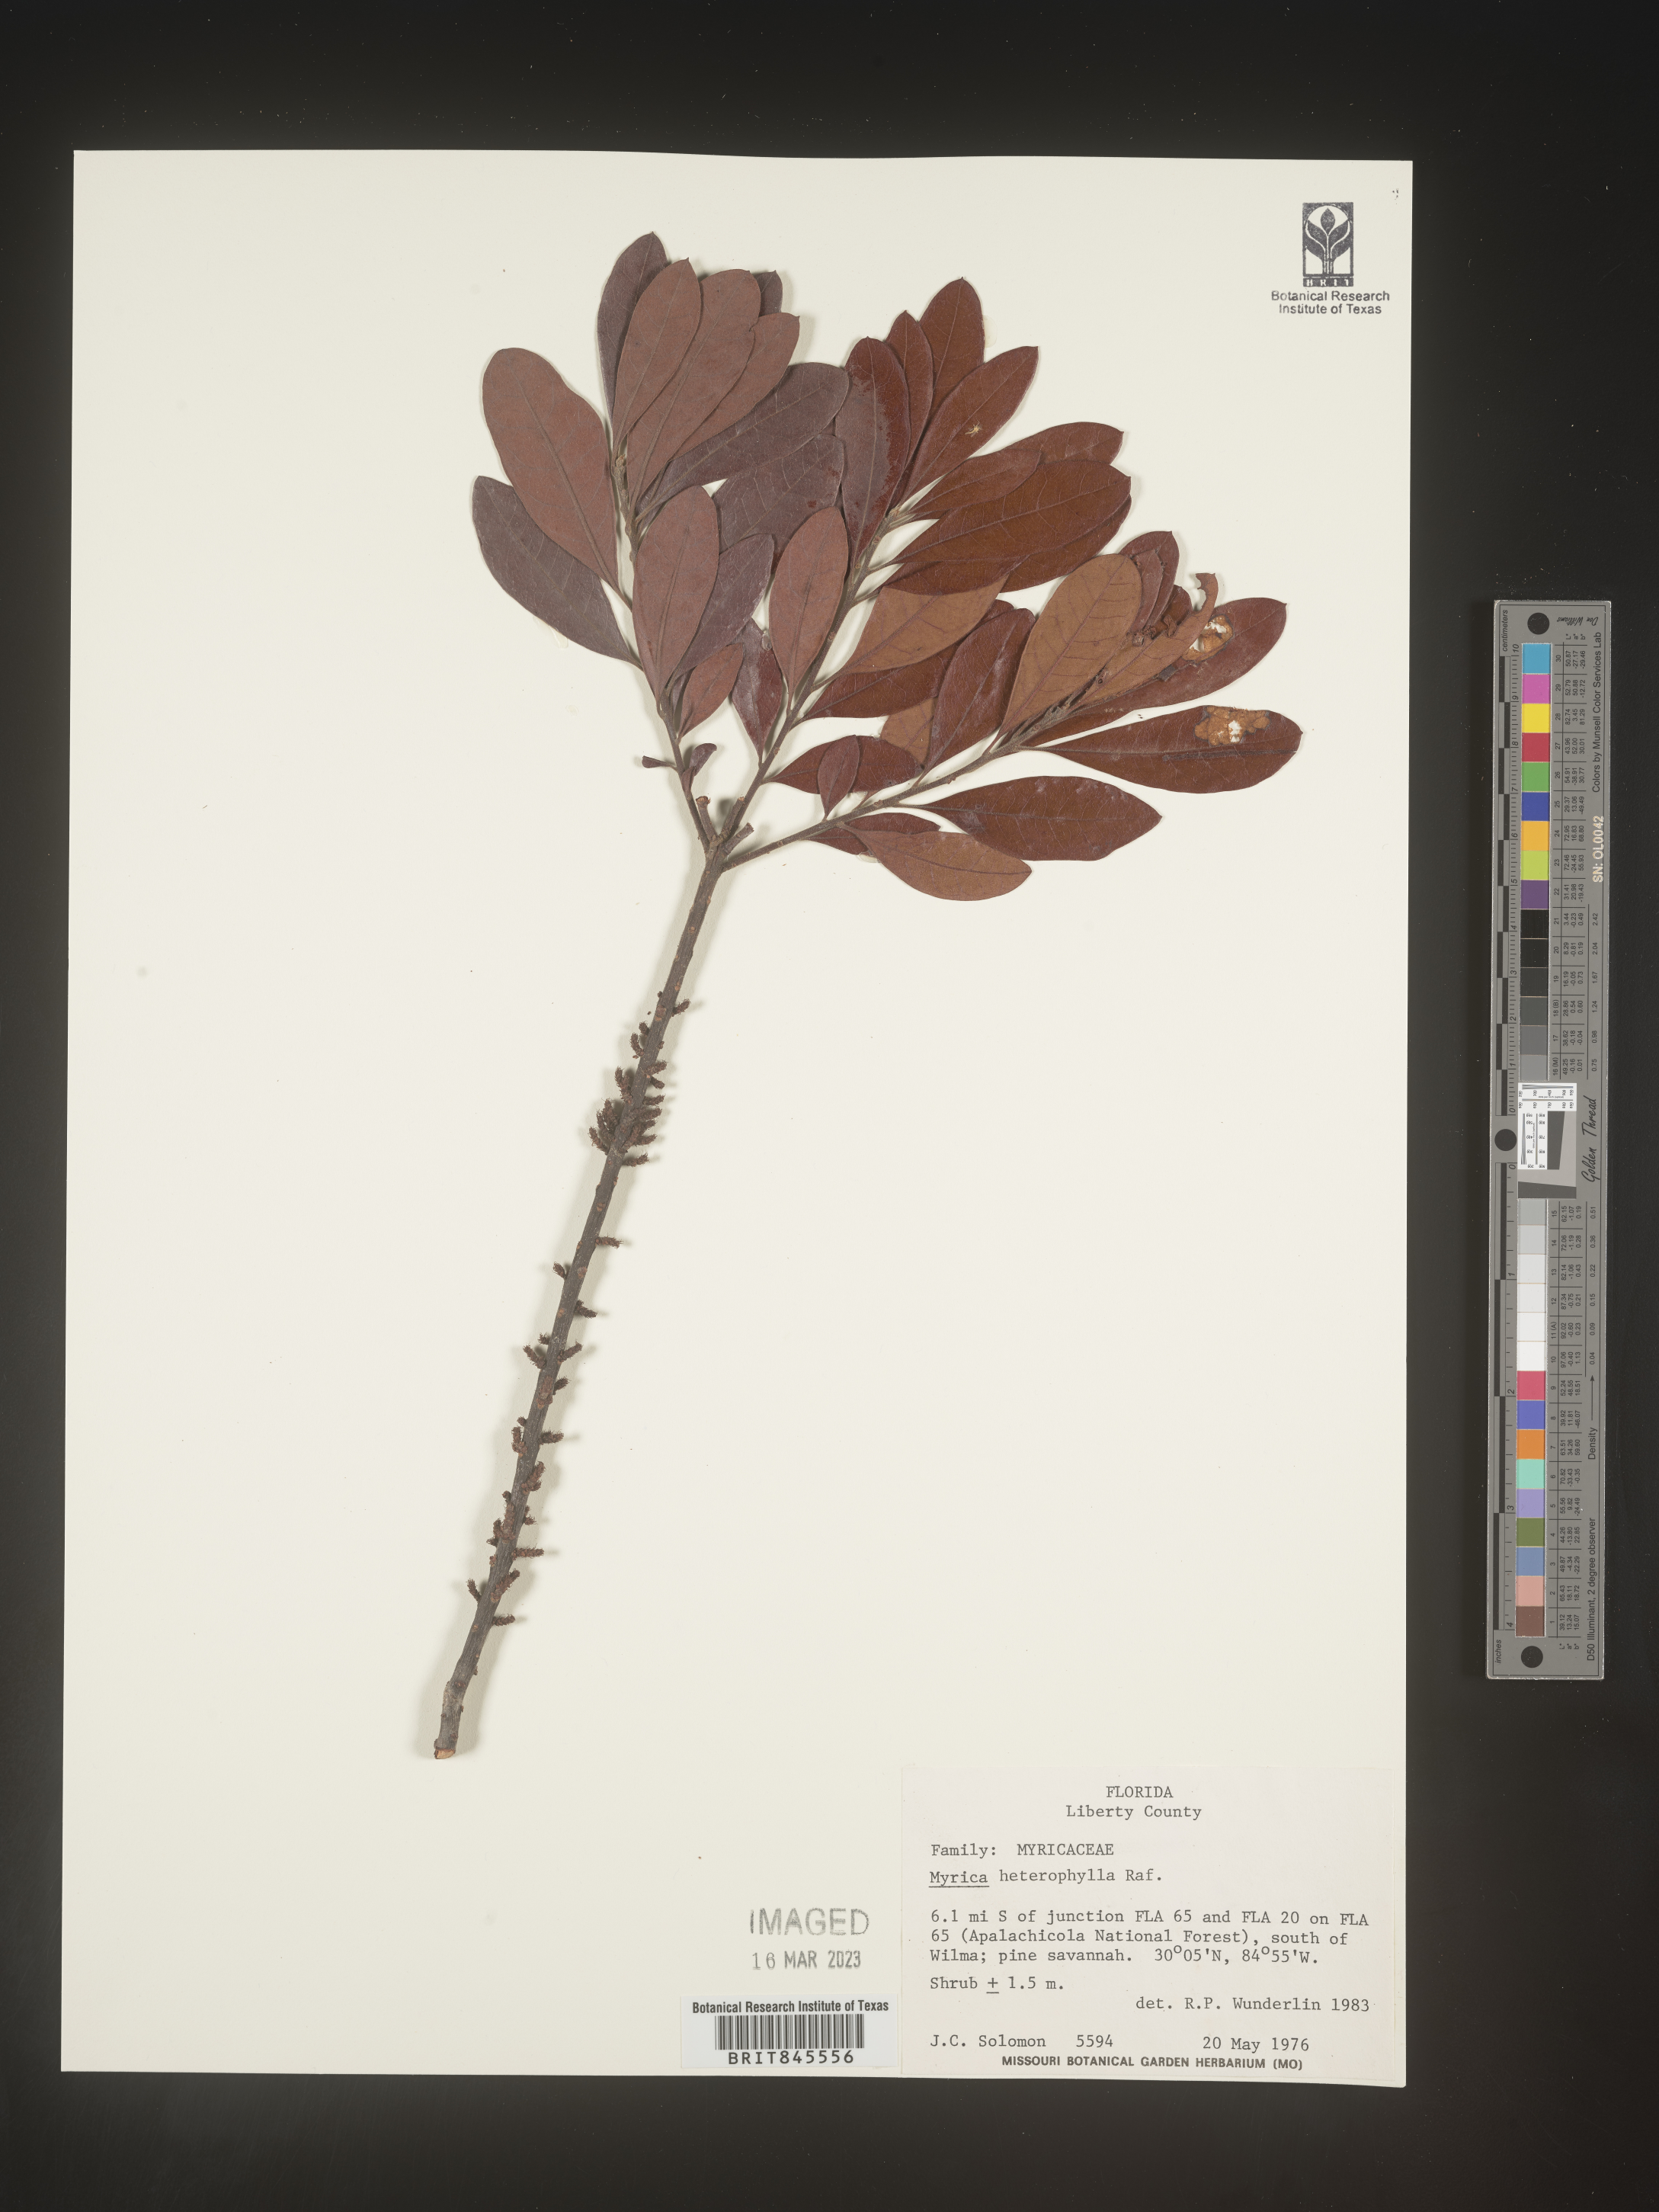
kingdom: Plantae
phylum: Tracheophyta
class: Magnoliopsida
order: Fagales
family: Myricaceae
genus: Morella
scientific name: Morella caroliniensis
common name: Evergreen bayberry
